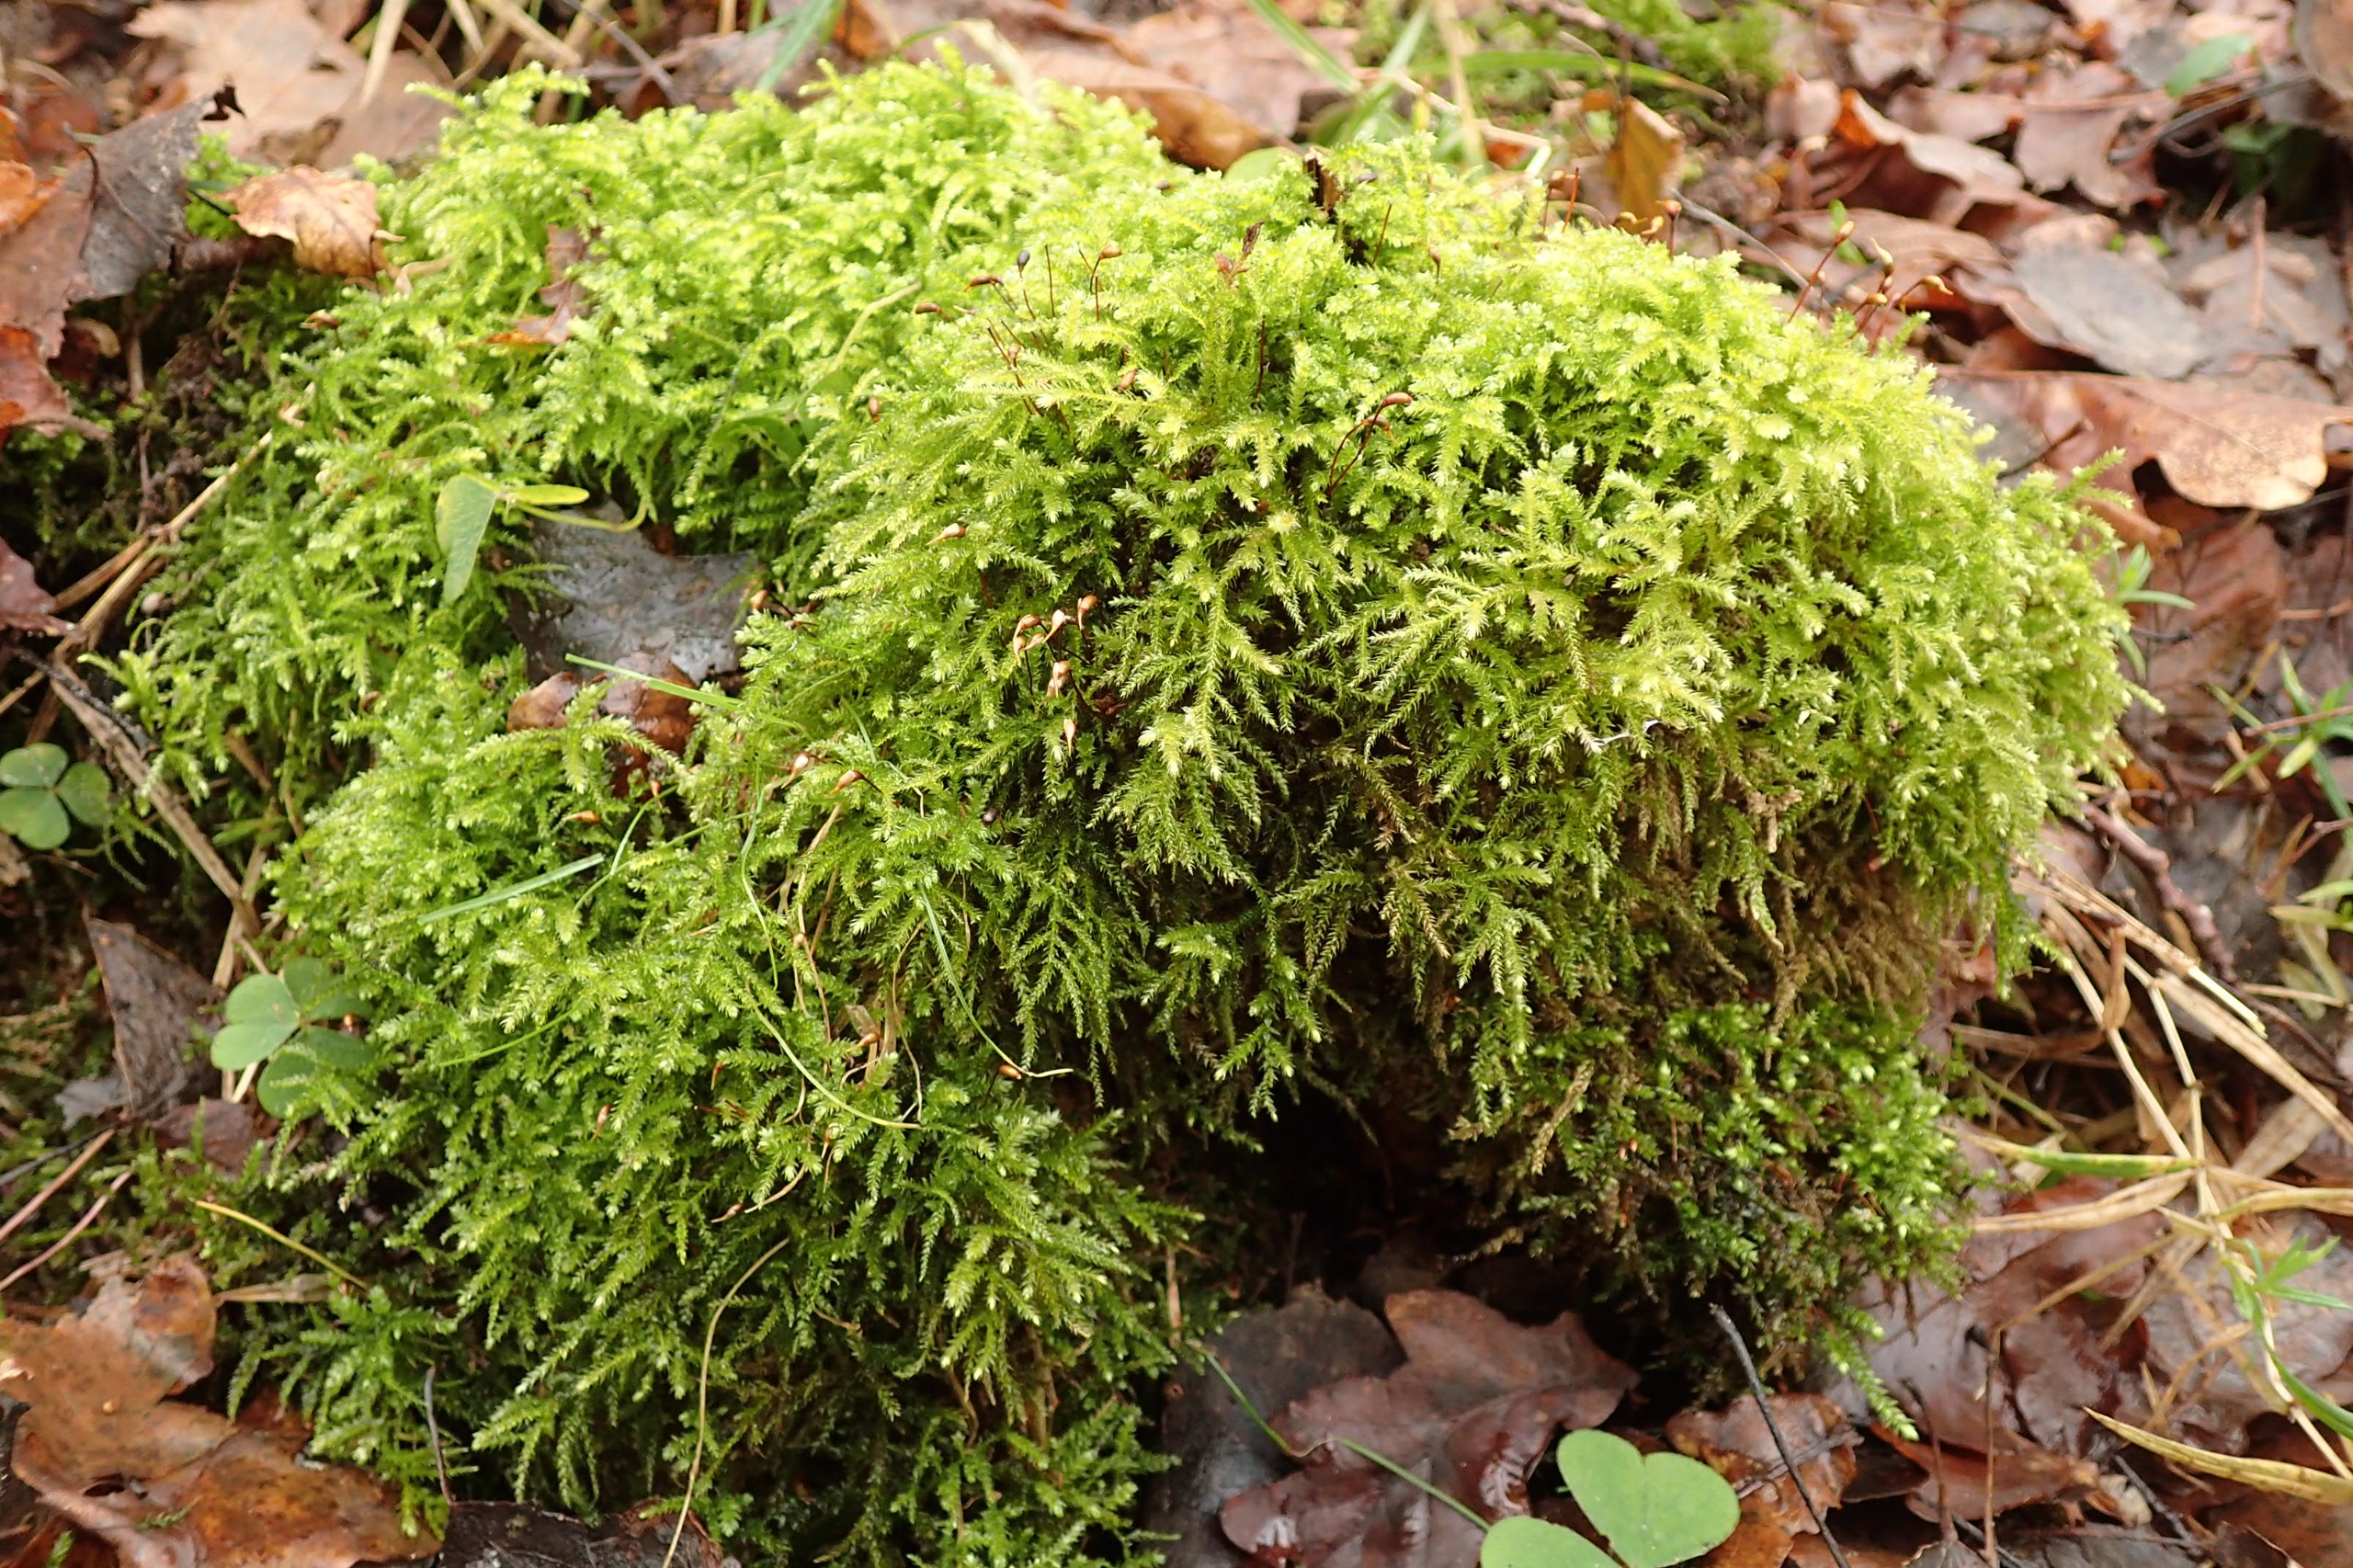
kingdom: Plantae
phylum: Bryophyta
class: Bryopsida
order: Hypnales
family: Brachytheciaceae
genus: Eurhynchium
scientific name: Eurhynchium striatum
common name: Stribet næbmos
